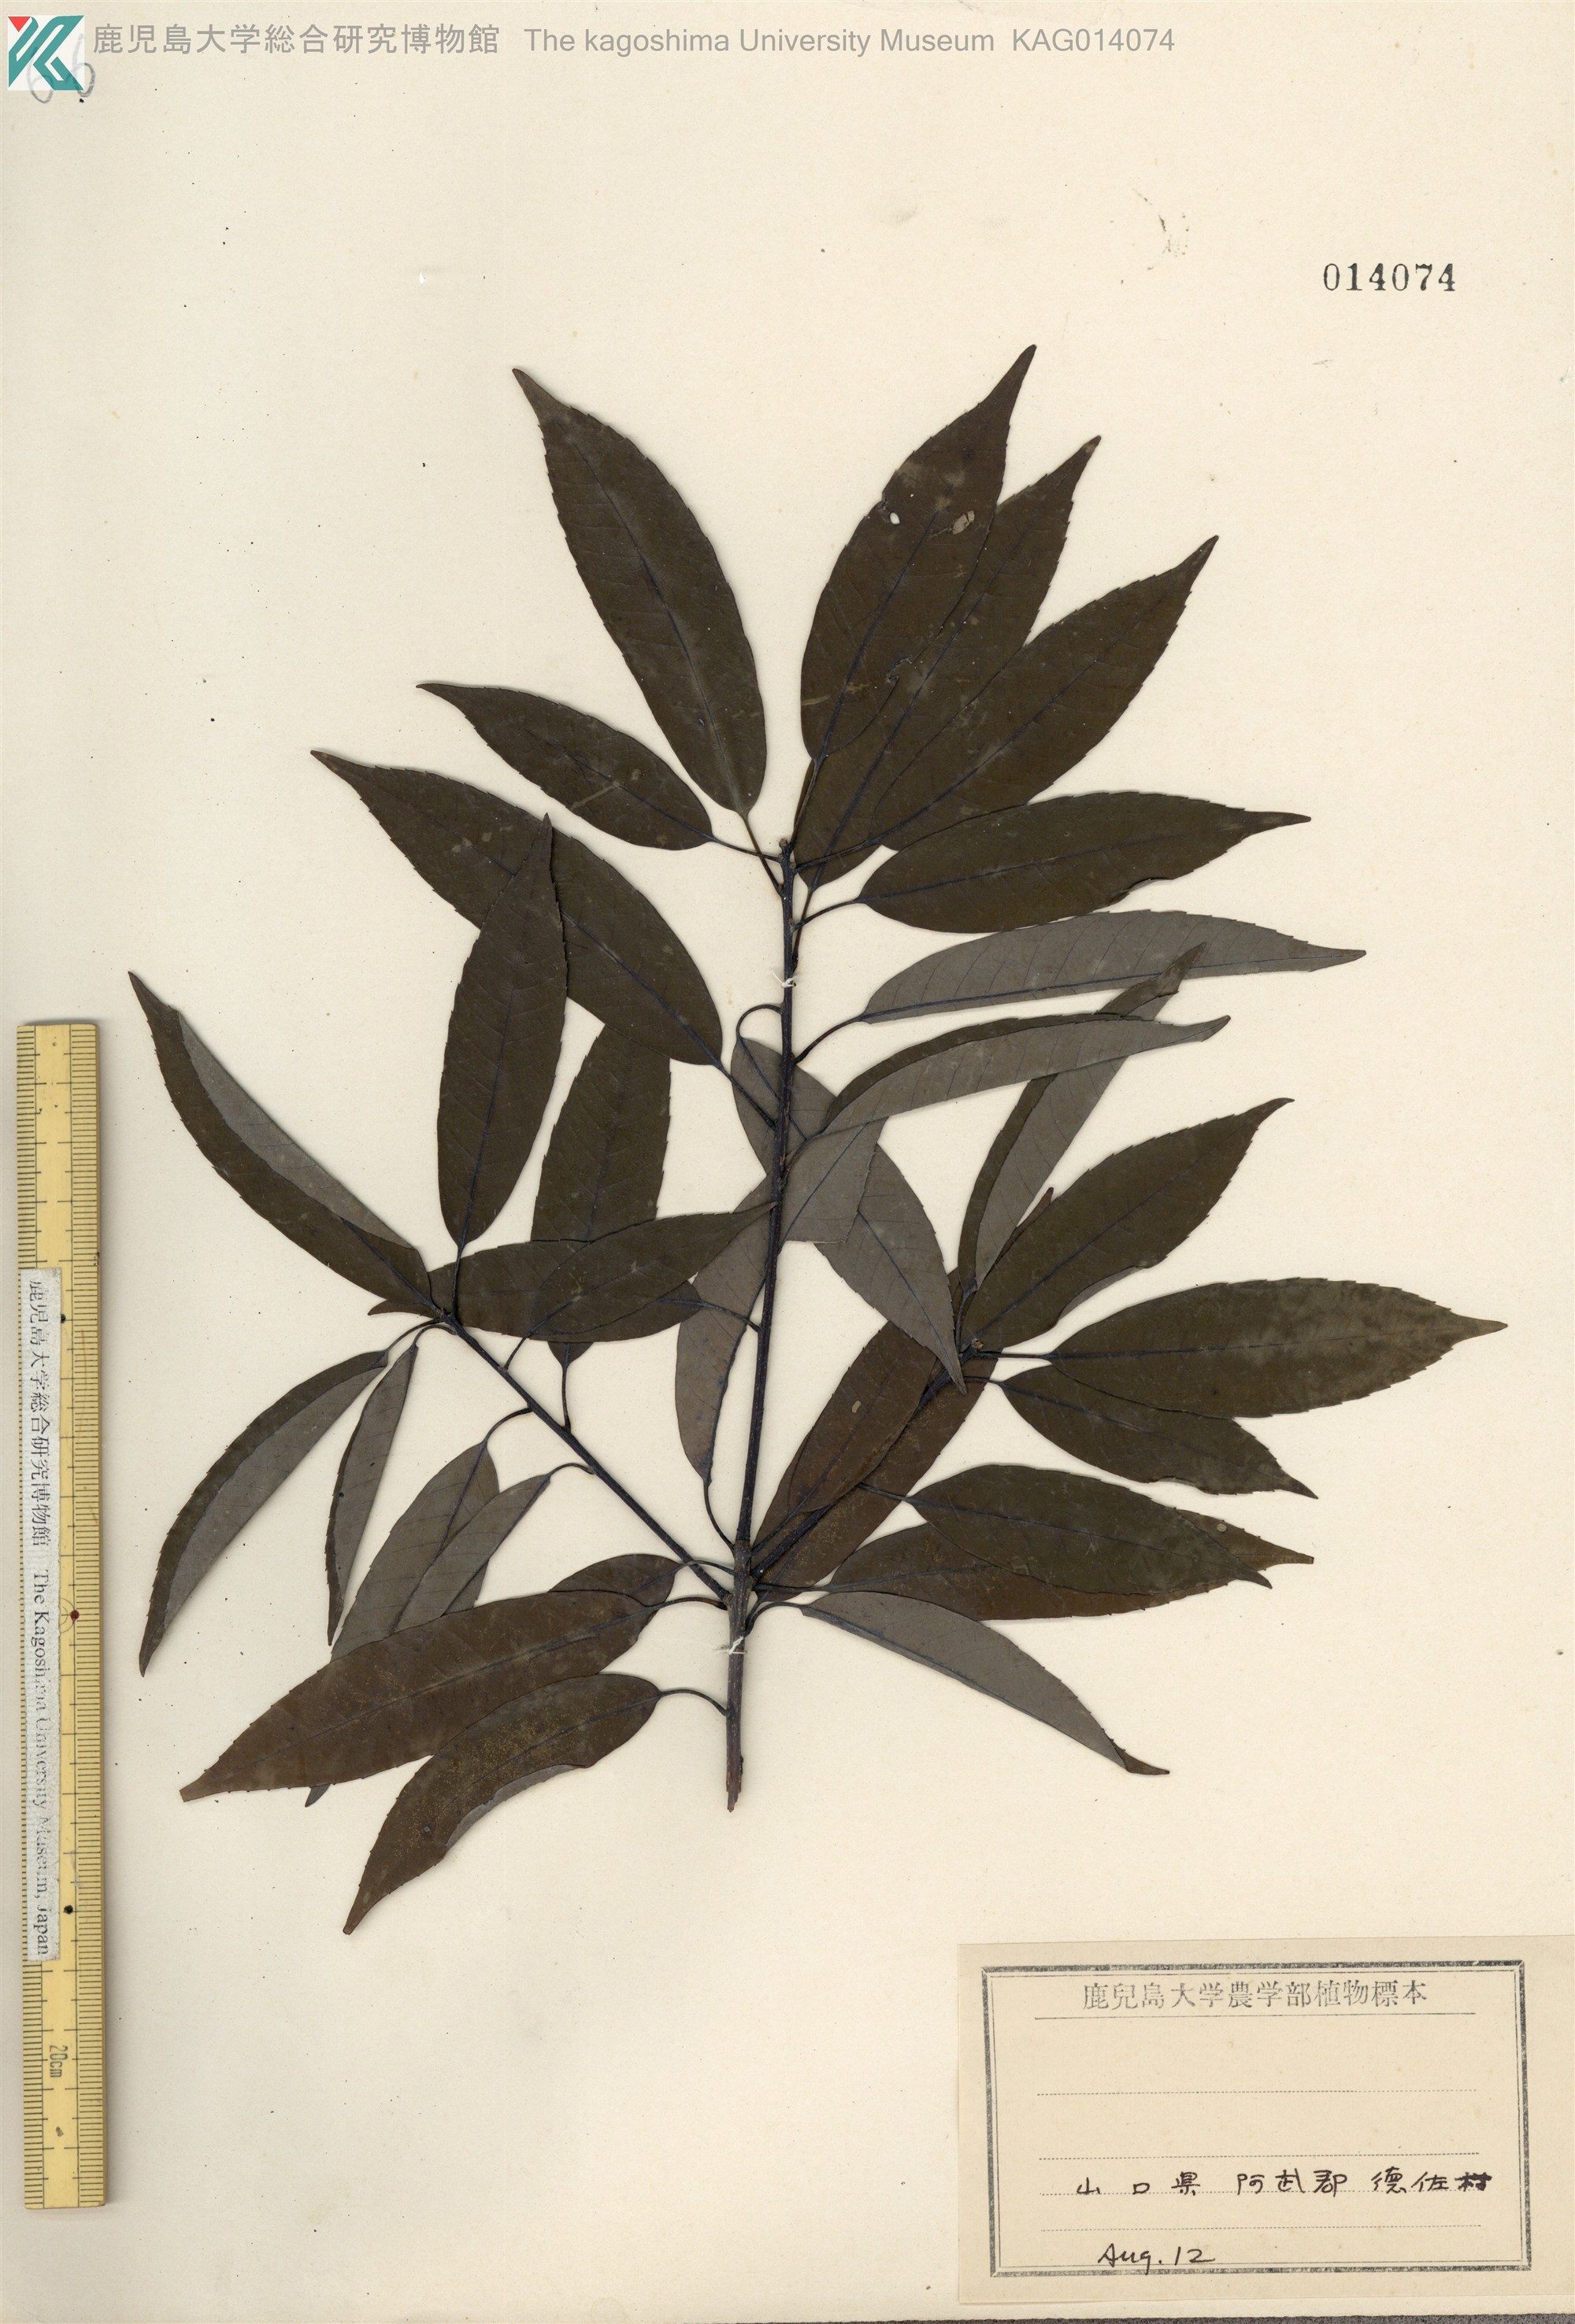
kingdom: Plantae
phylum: Tracheophyta
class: Magnoliopsida
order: Fagales
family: Fagaceae
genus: Quercus
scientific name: Quercus myrsinaefolia
